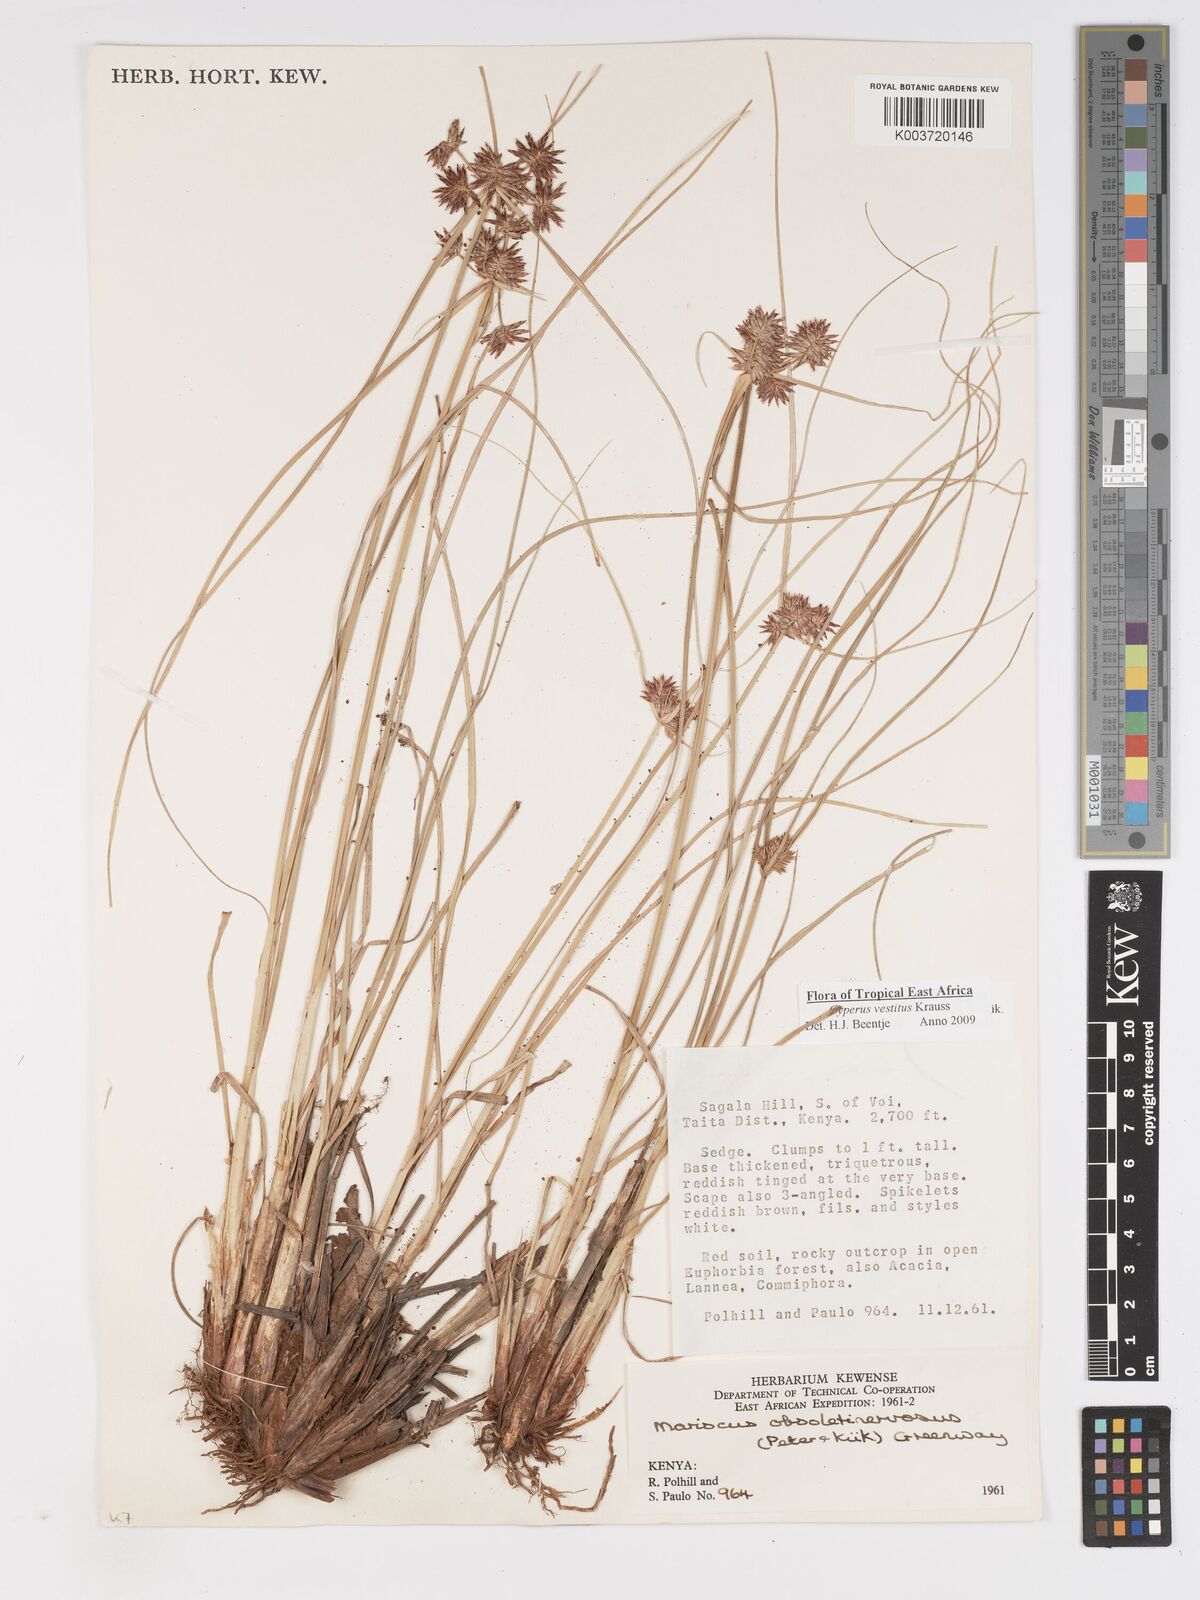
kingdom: Plantae
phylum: Tracheophyta
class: Liliopsida
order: Poales
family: Cyperaceae
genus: Cyperus
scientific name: Cyperus vestitus
